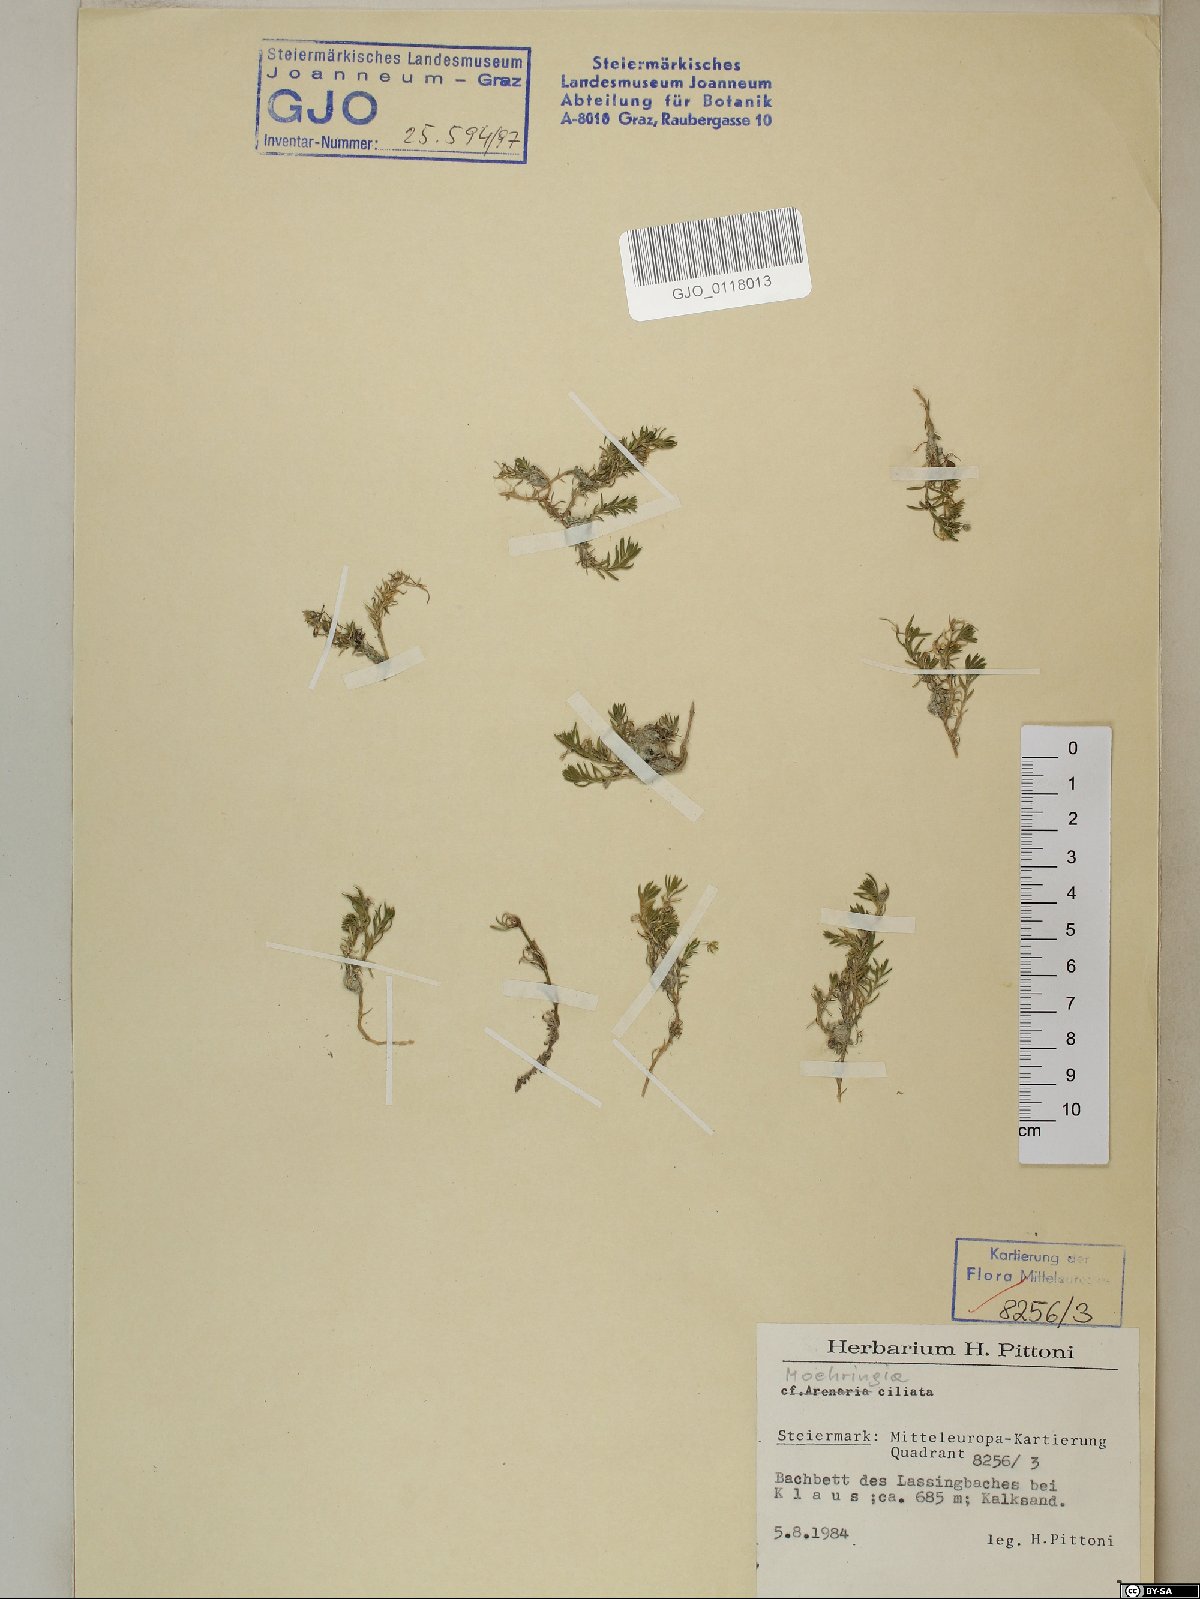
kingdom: Plantae
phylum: Tracheophyta
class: Magnoliopsida
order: Caryophyllales
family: Caryophyllaceae
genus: Moehringia
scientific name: Moehringia ciliata
